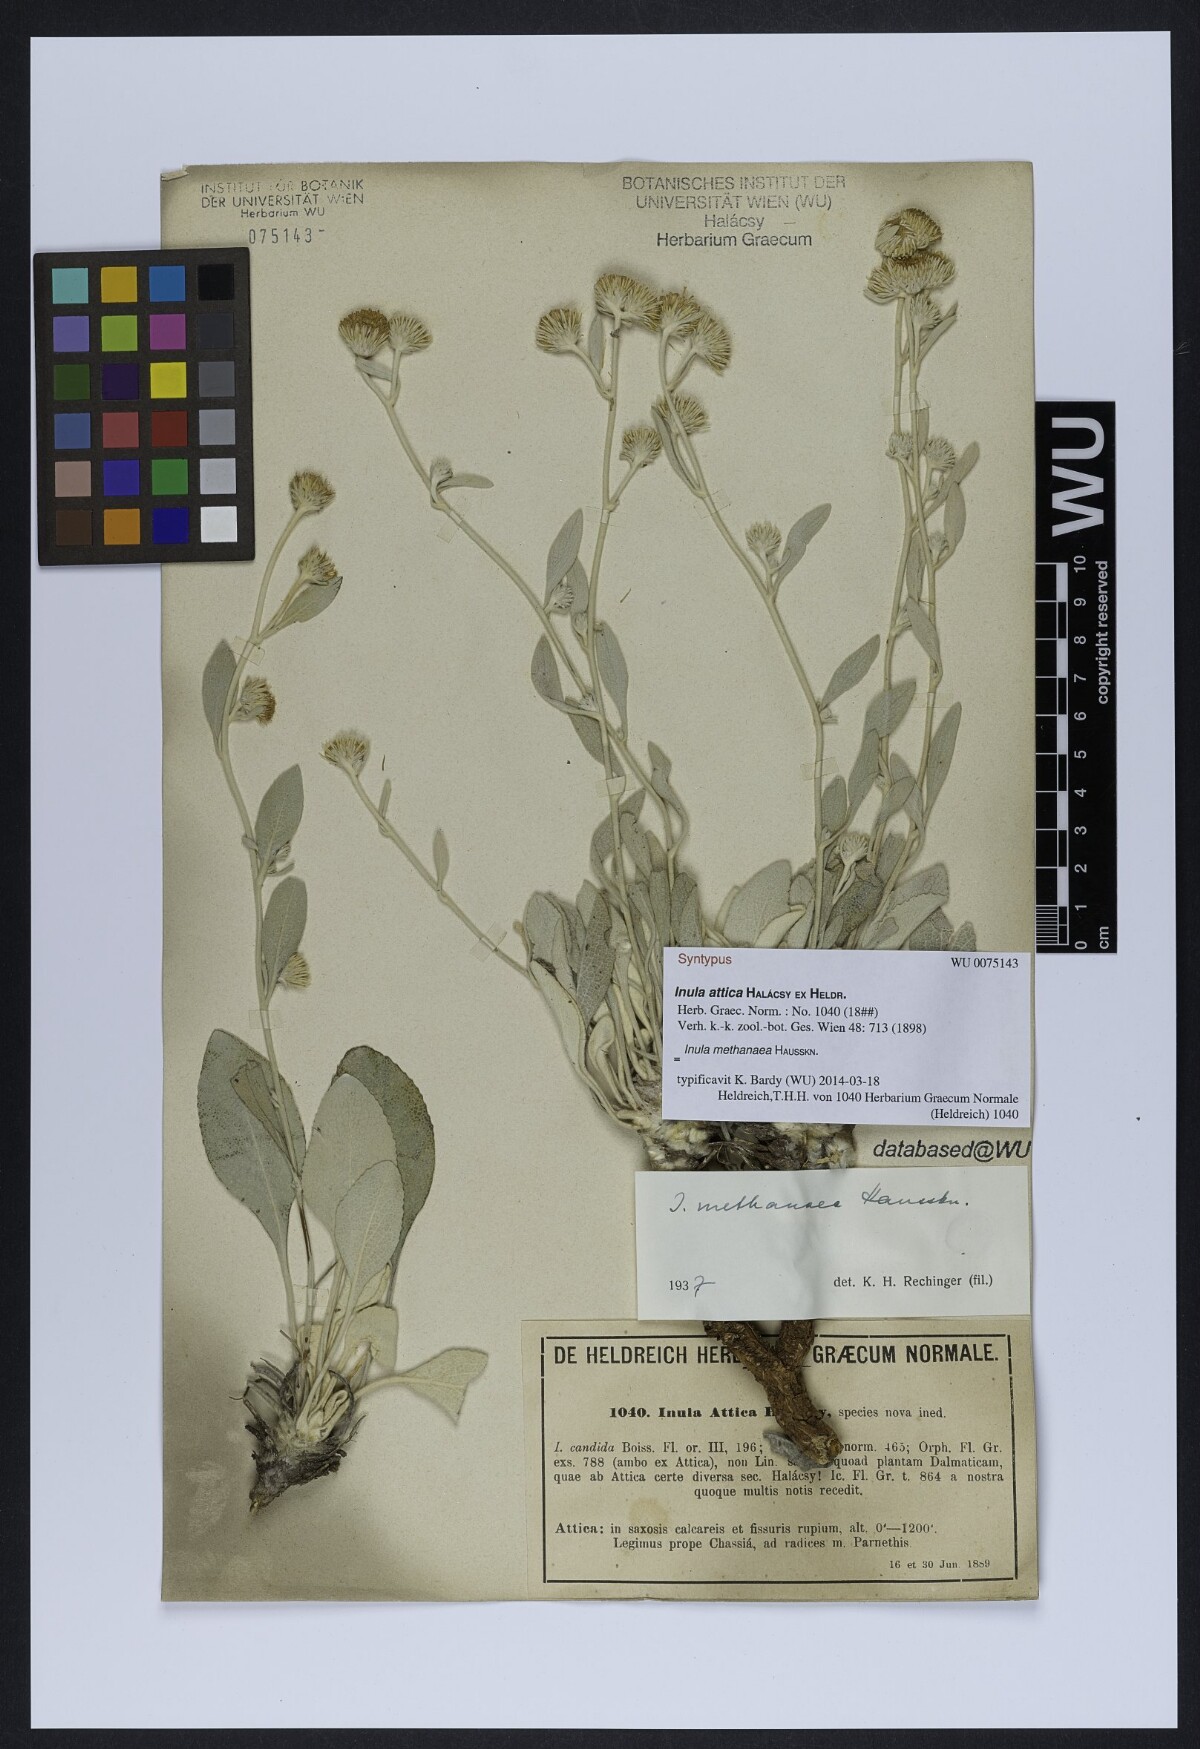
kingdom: Plantae
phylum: Tracheophyta
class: Magnoliopsida
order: Asterales
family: Asteraceae
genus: Pentanema
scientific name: Pentanema verbascifolium
